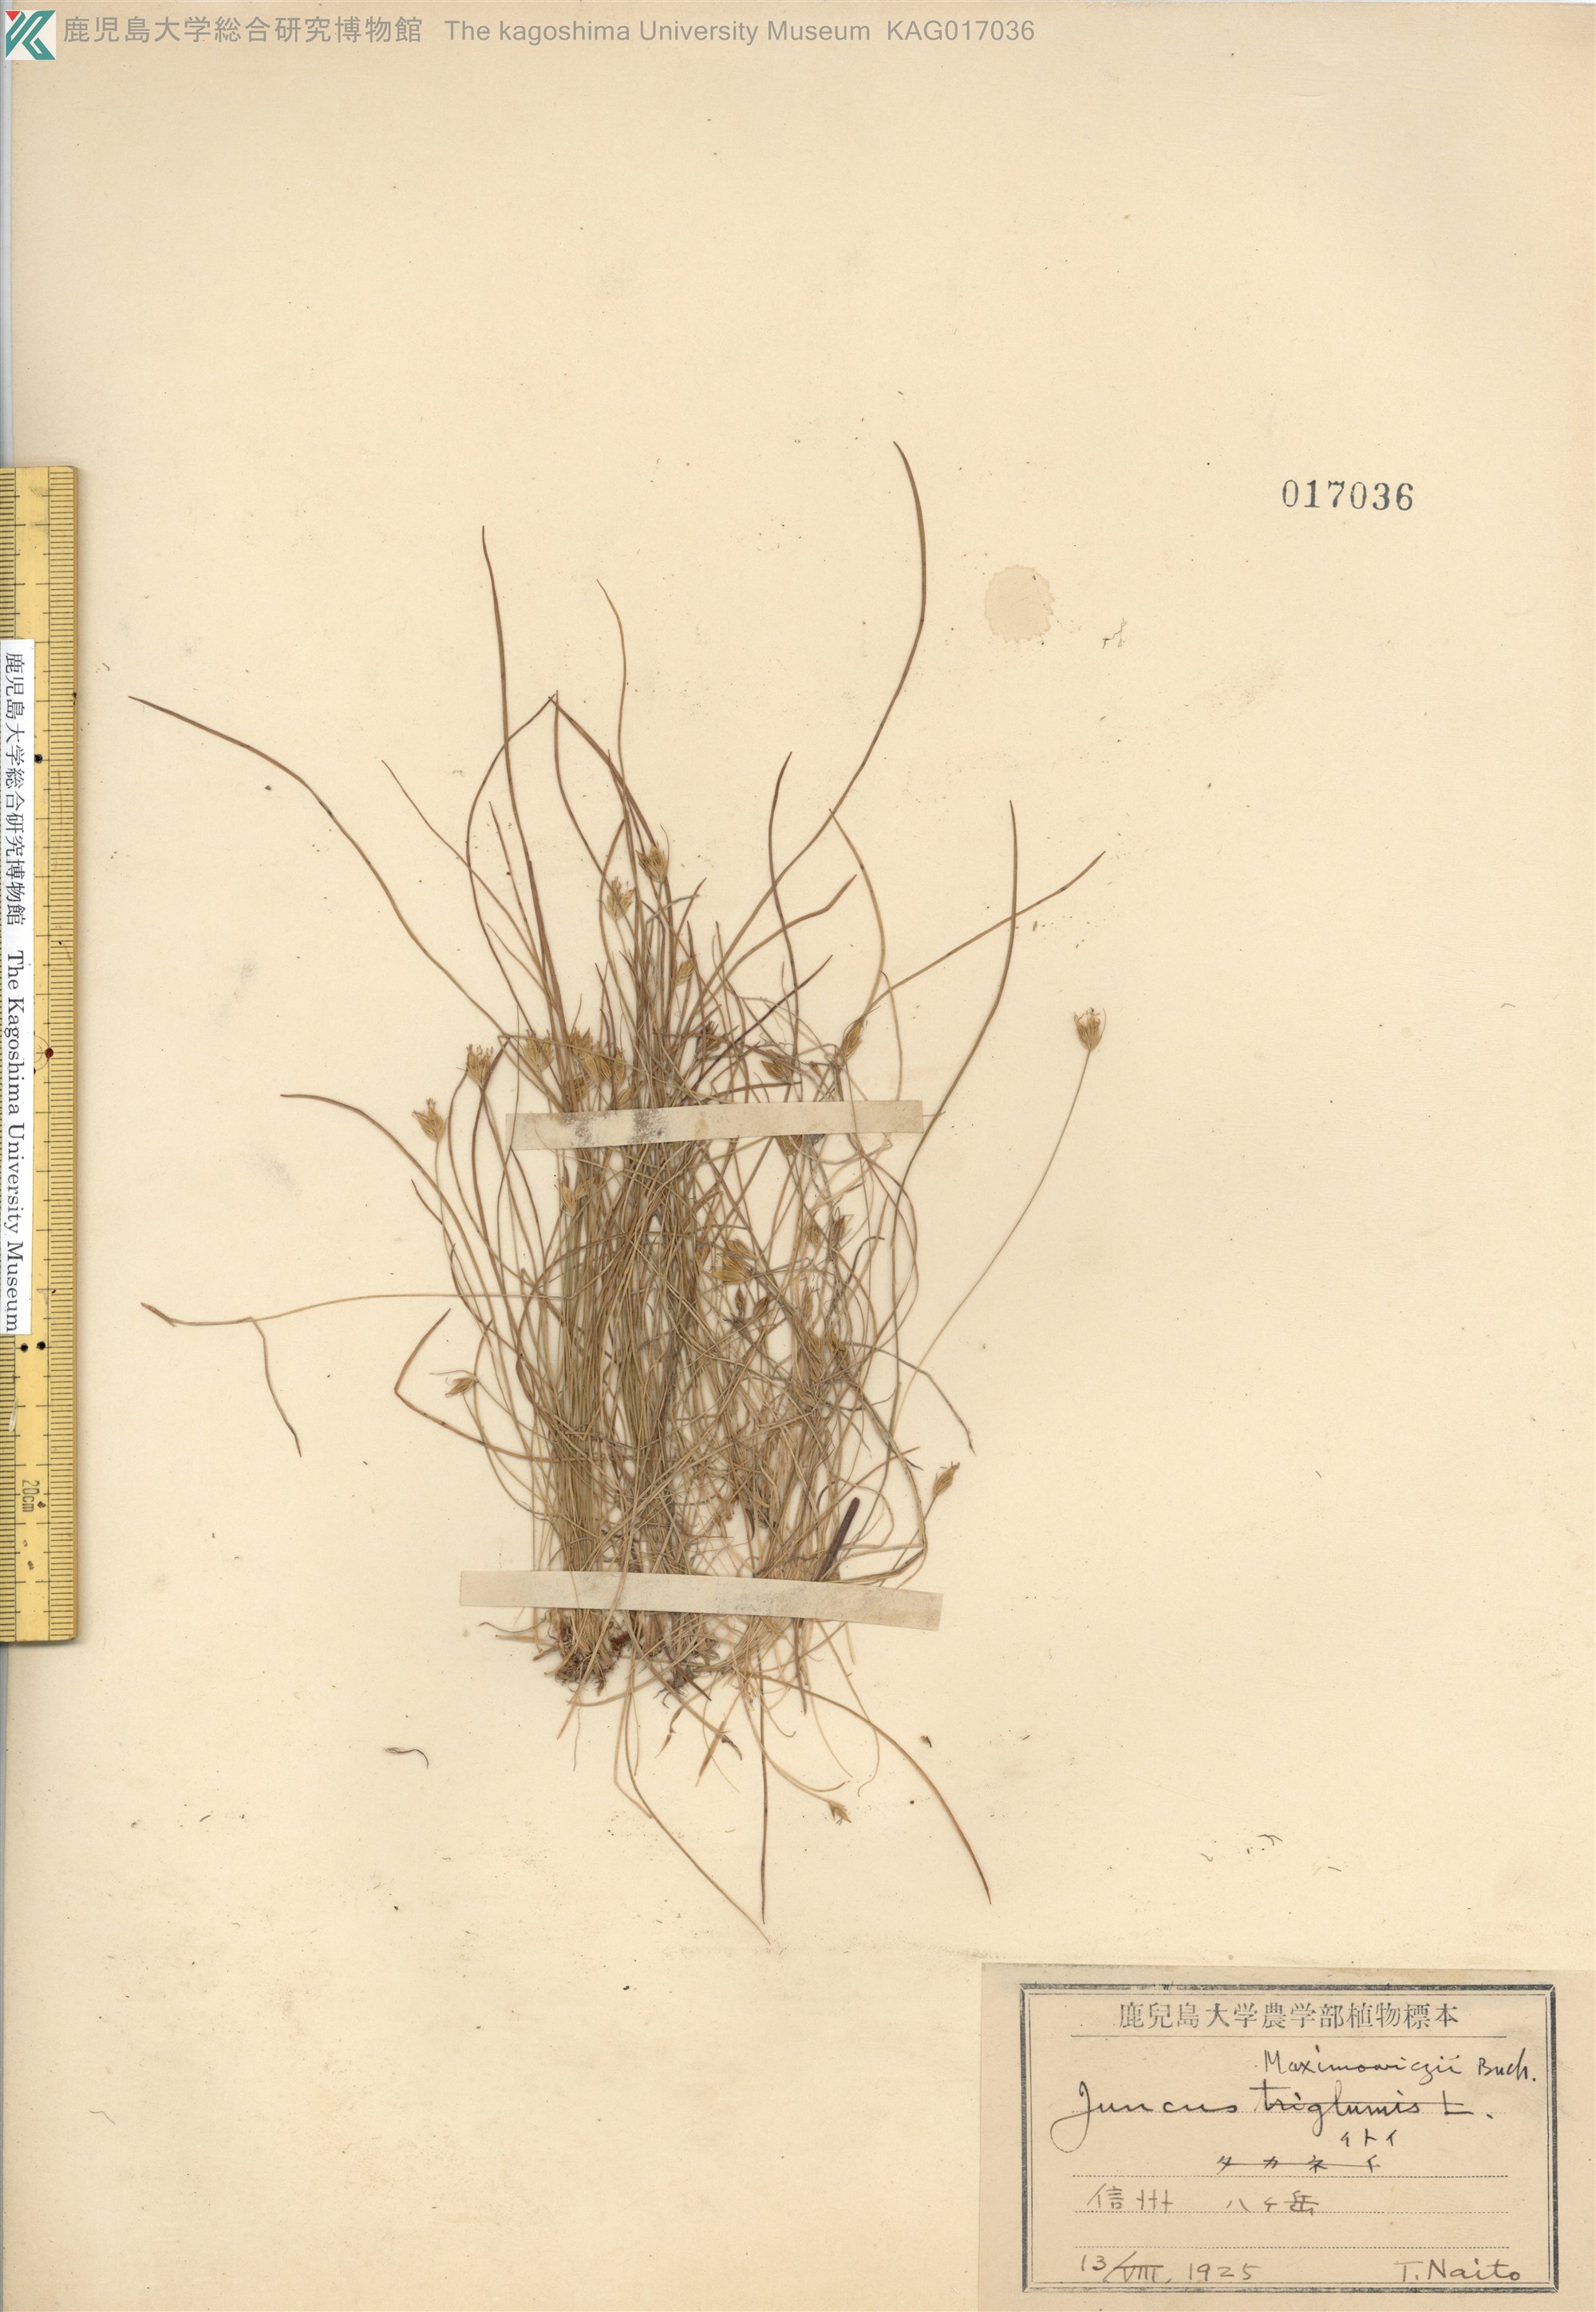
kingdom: Plantae
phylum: Tracheophyta
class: Liliopsida
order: Poales
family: Juncaceae
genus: Juncus
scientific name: Juncus maximowiczii
